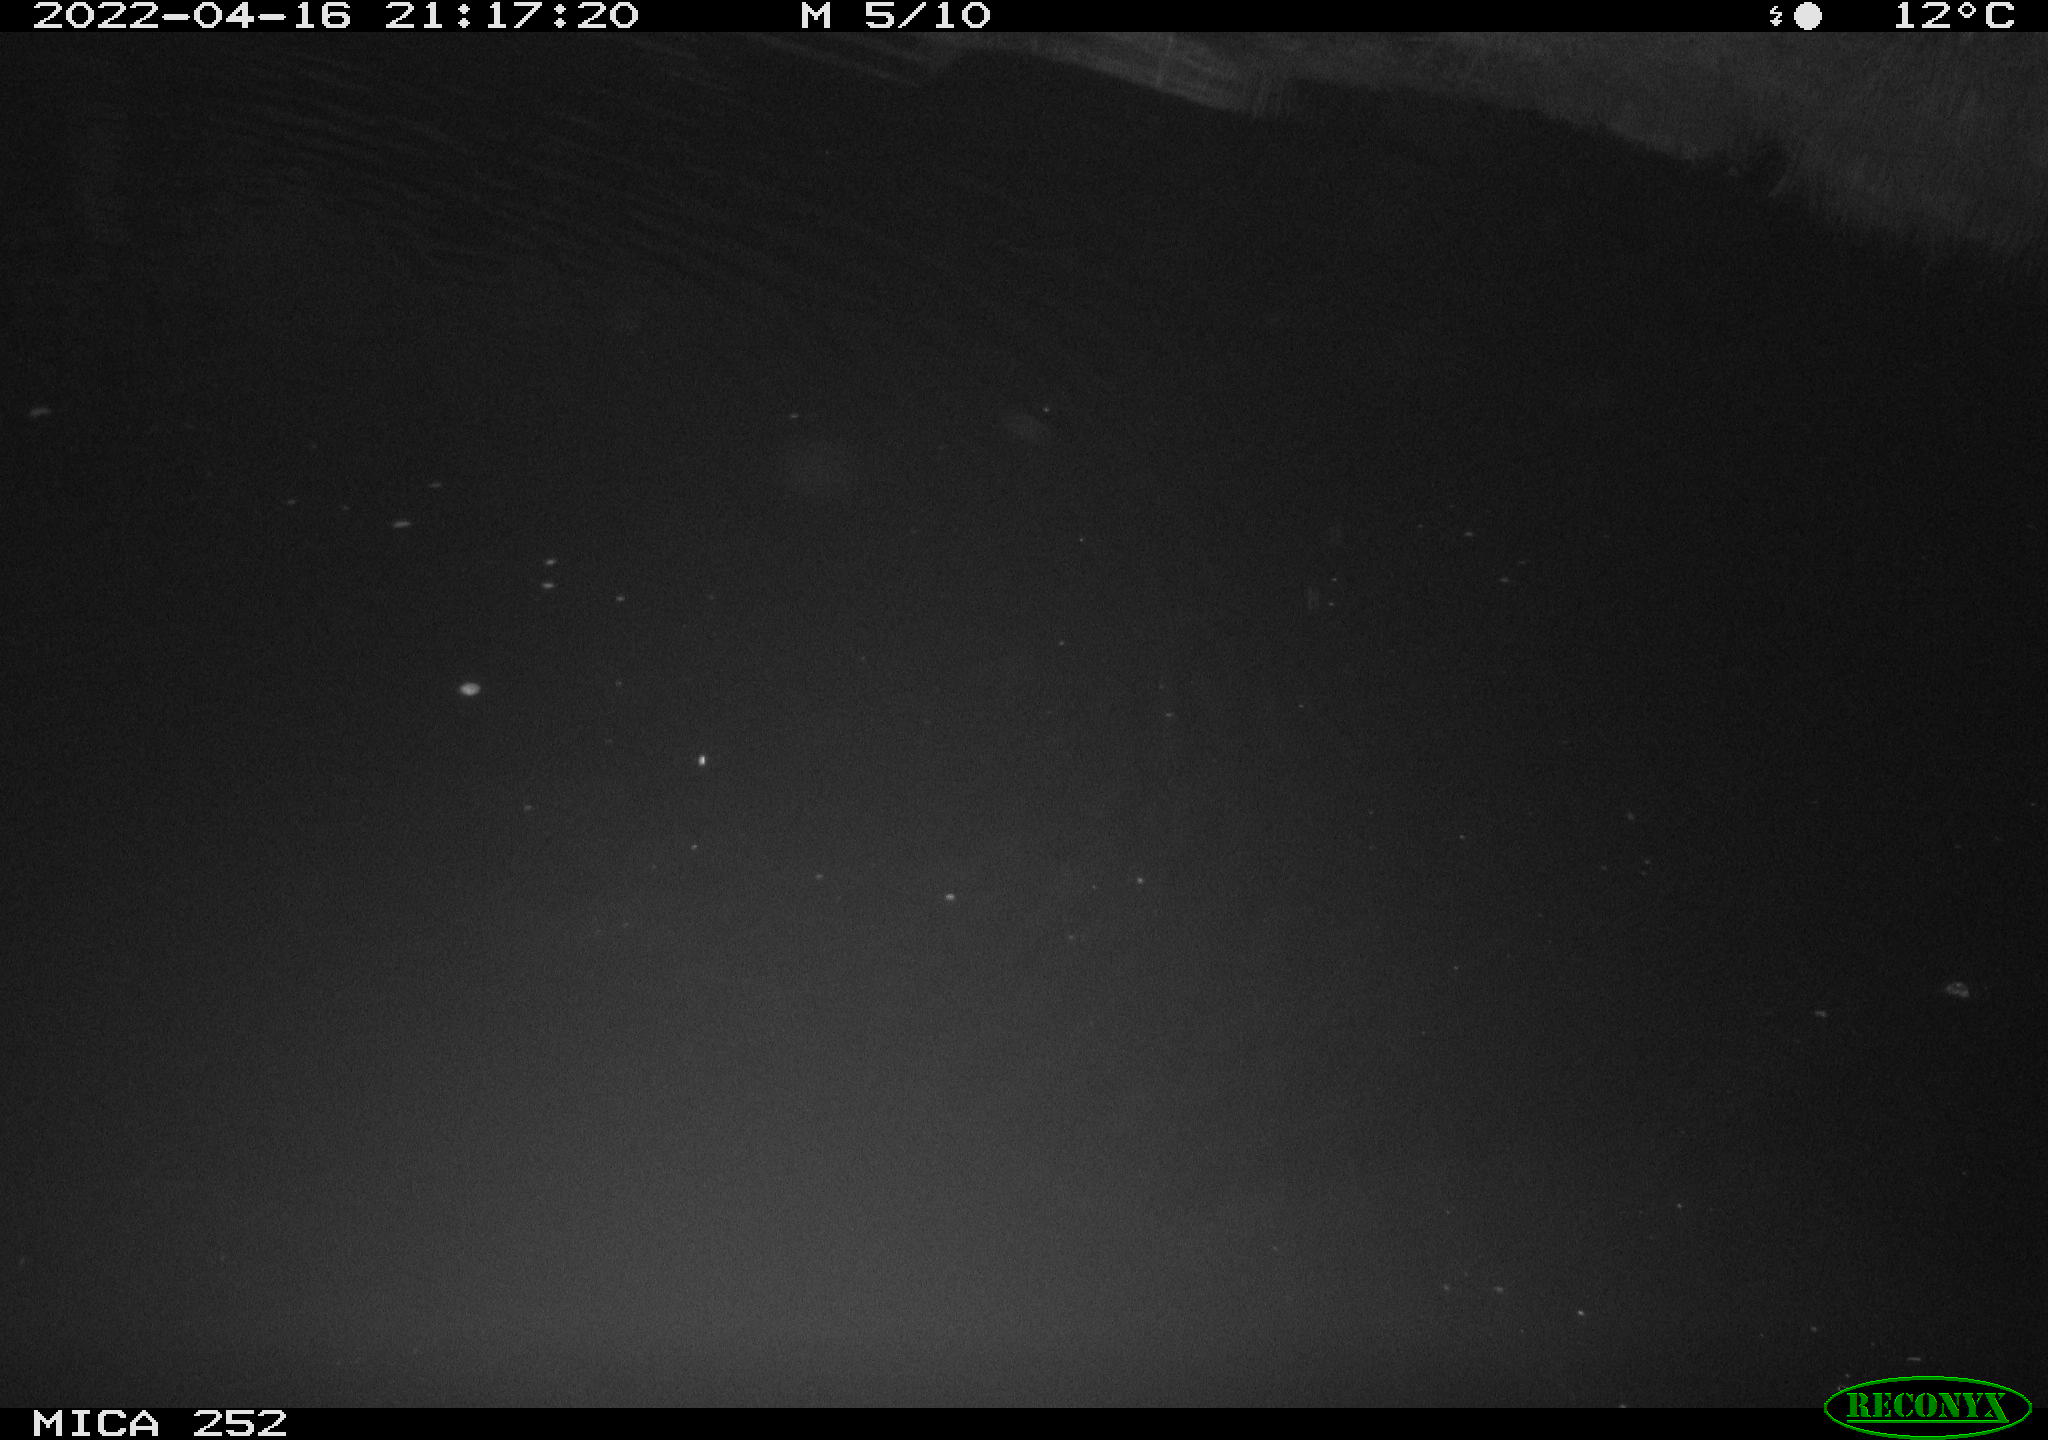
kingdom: Animalia
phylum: Chordata
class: Mammalia
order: Rodentia
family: Castoridae
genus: Castor
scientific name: Castor fiber
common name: Eurasian beaver
